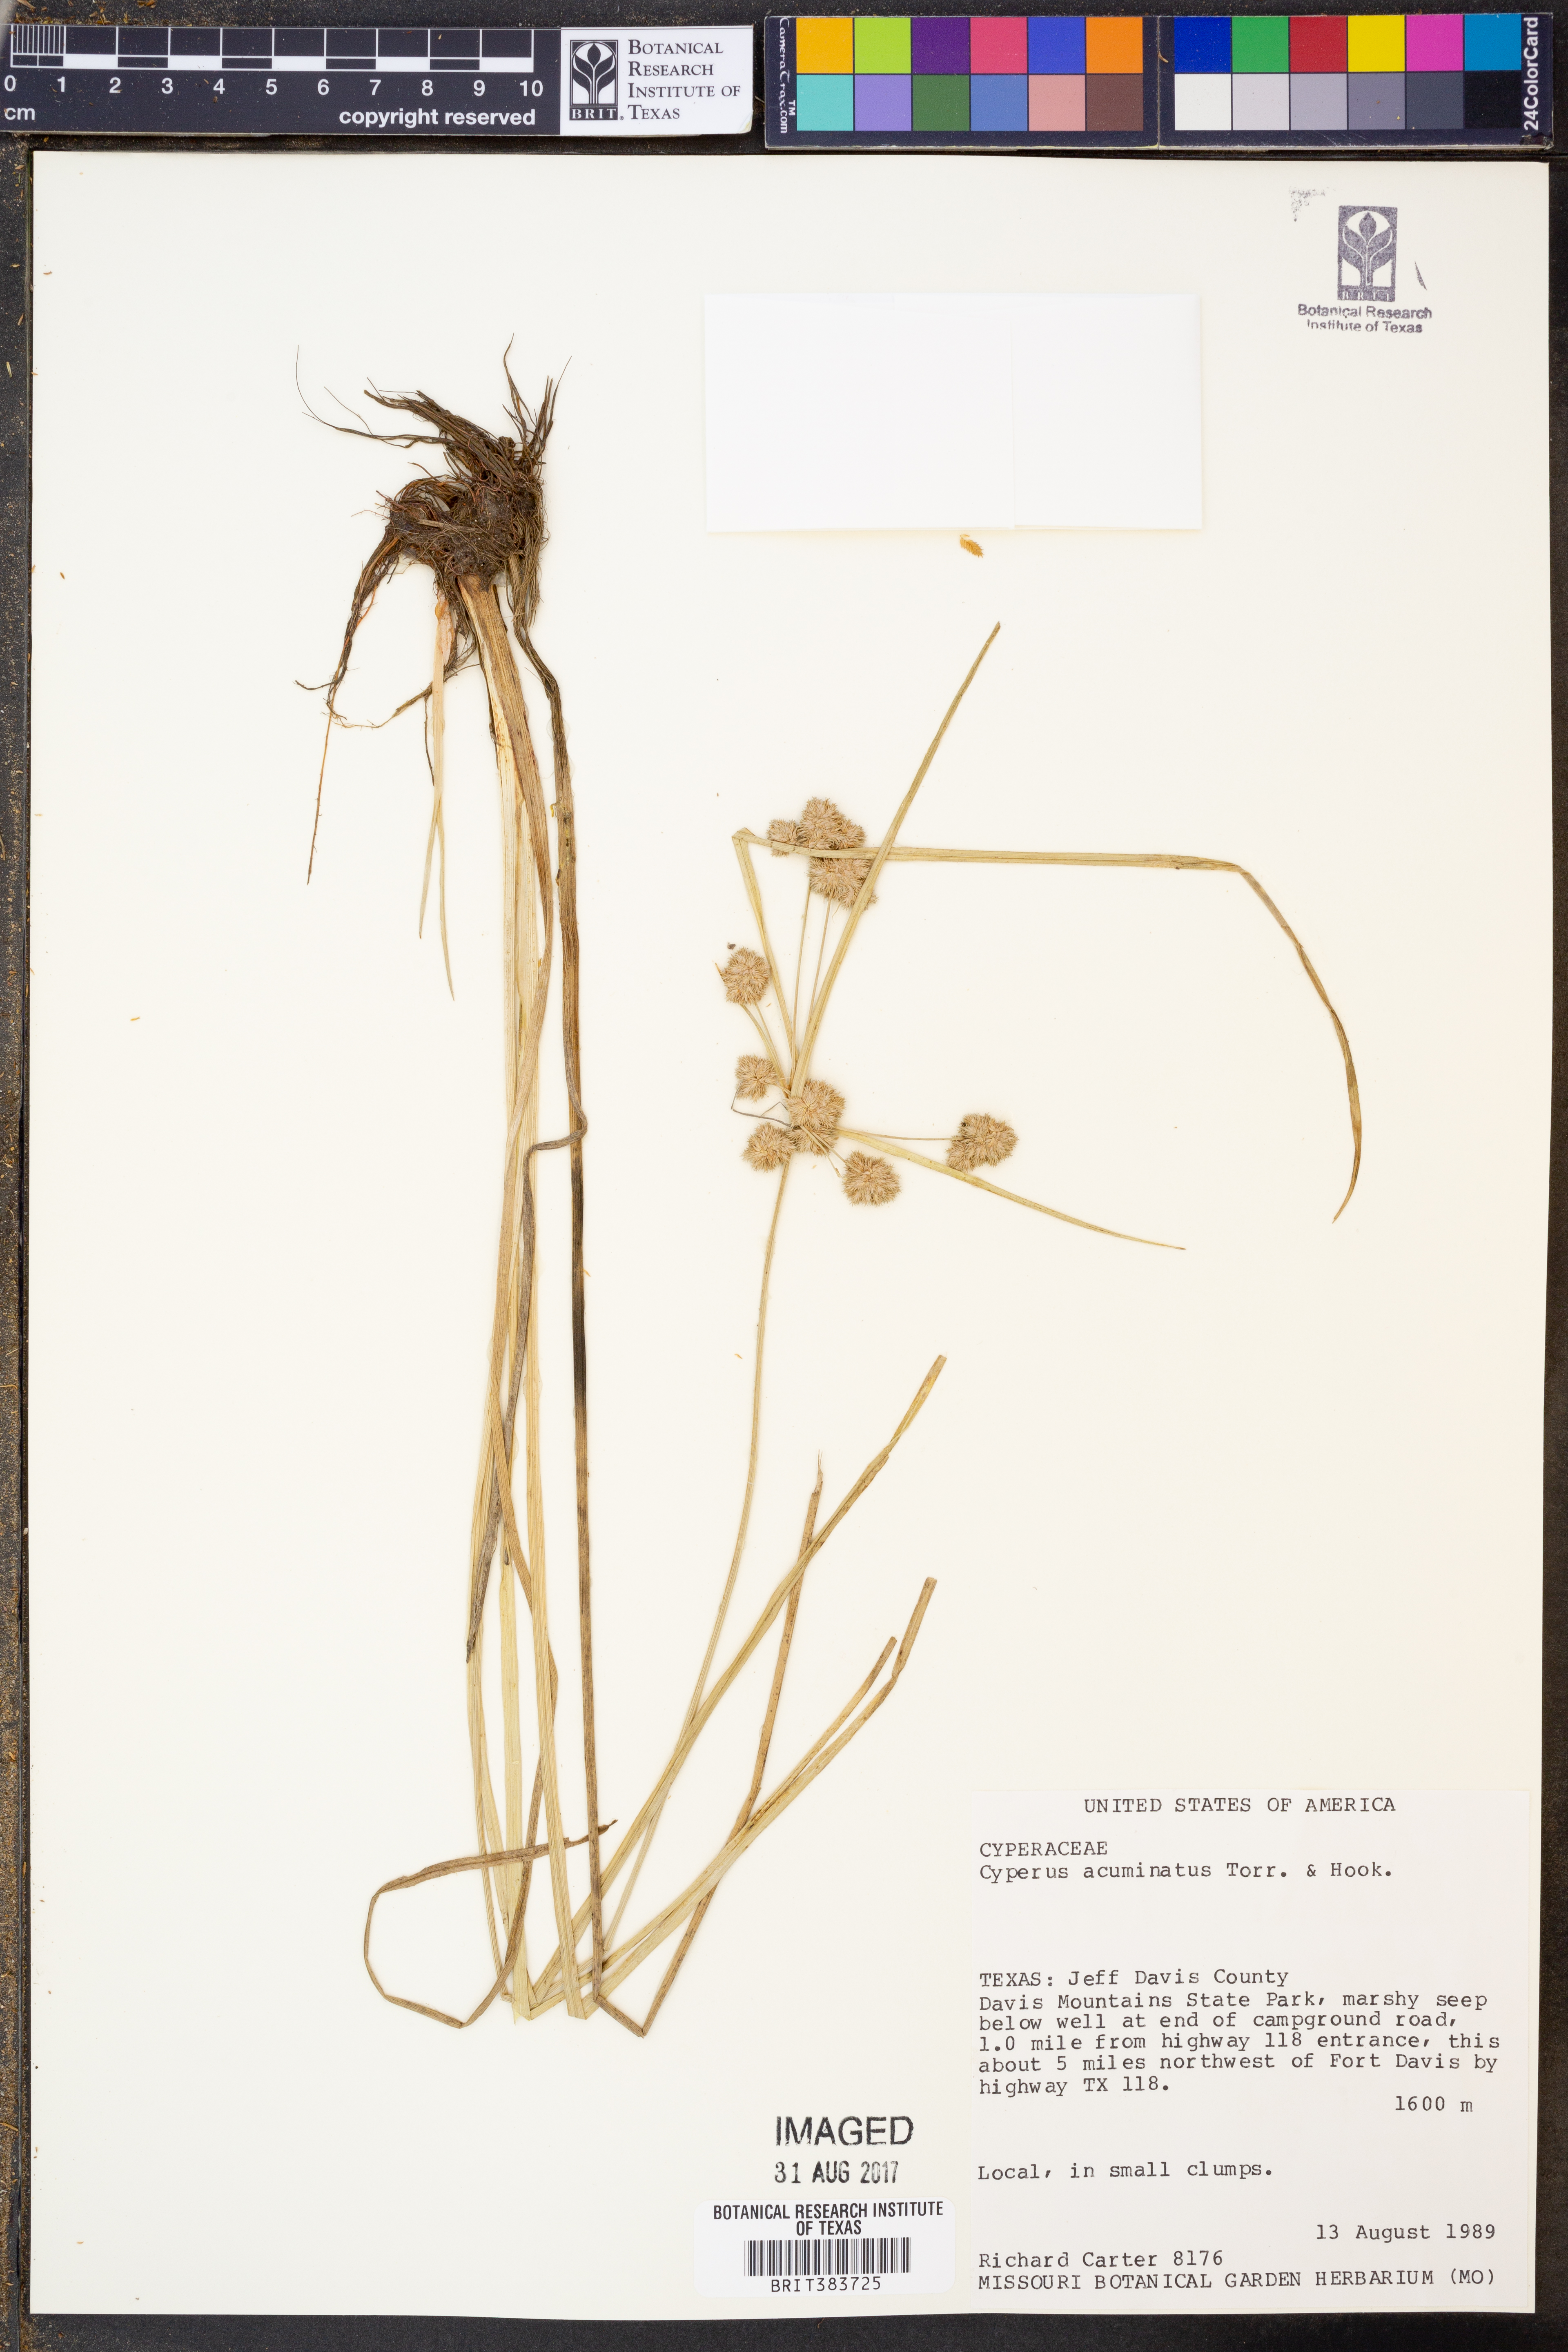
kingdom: Plantae
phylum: Tracheophyta
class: Liliopsida
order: Poales
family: Cyperaceae
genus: Cyperus
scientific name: Cyperus acuminatus
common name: Short-pointed cyperus
